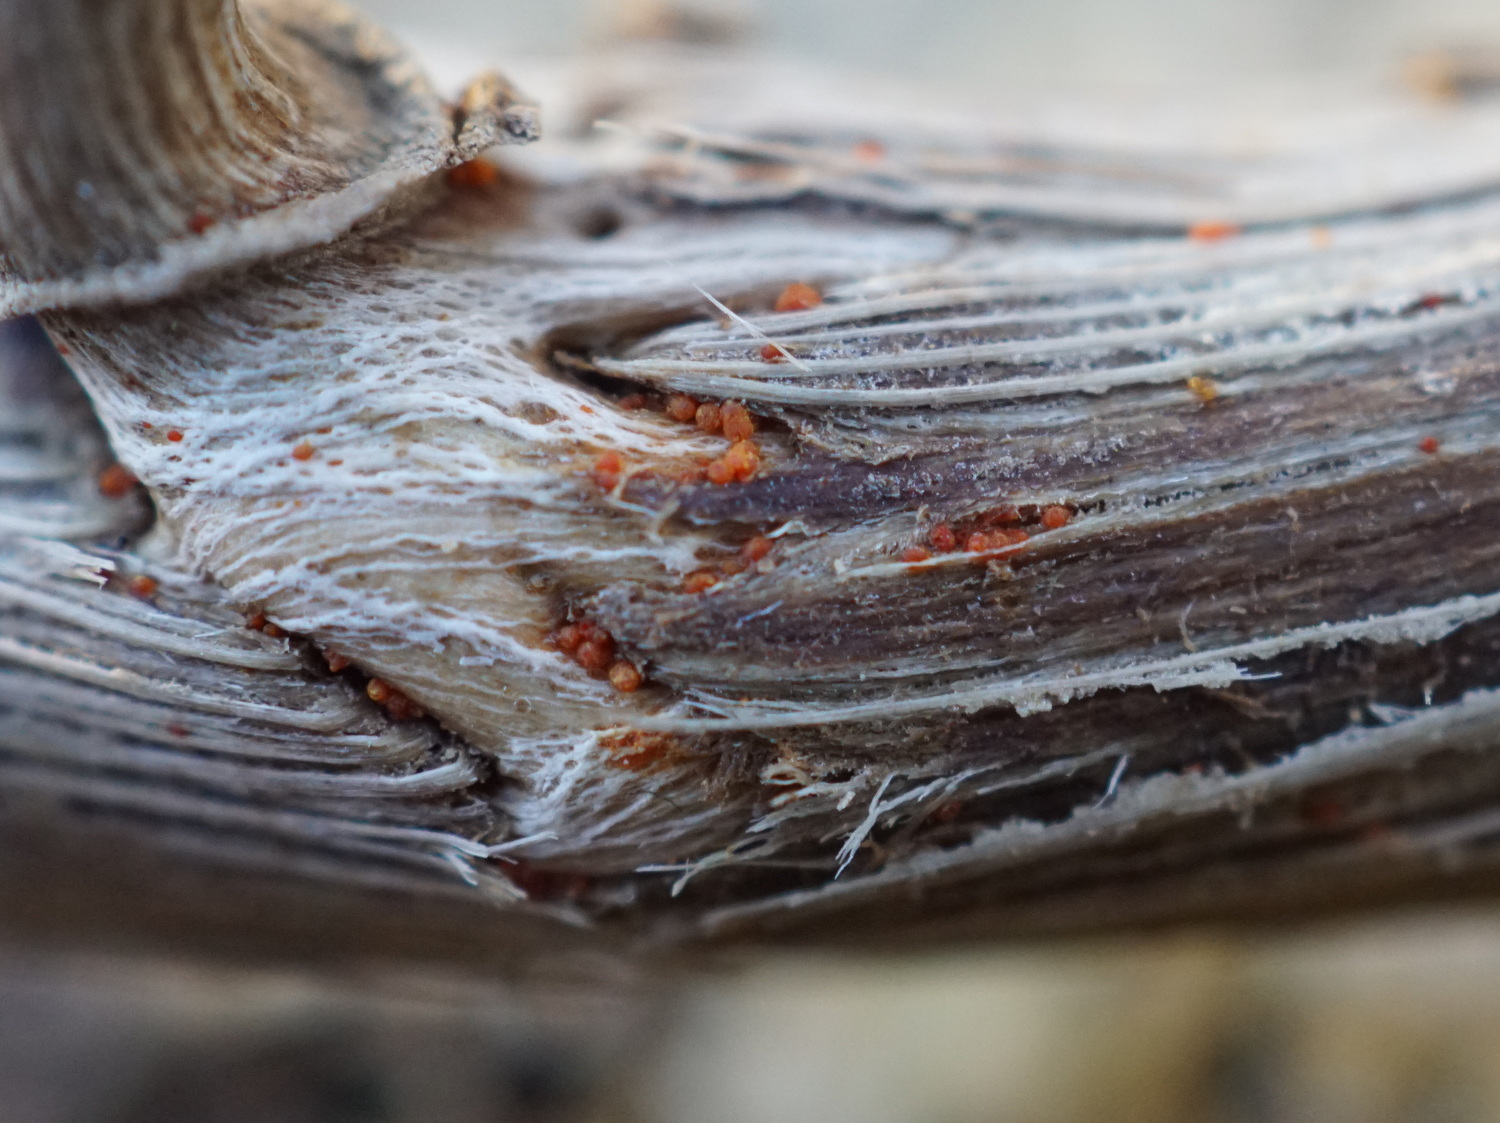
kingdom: Fungi
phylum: Ascomycota
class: Sordariomycetes
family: Thyridiaceae
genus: Thyronectria
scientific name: Thyronectria sinopica
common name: vedbend-cinnobersvamp
